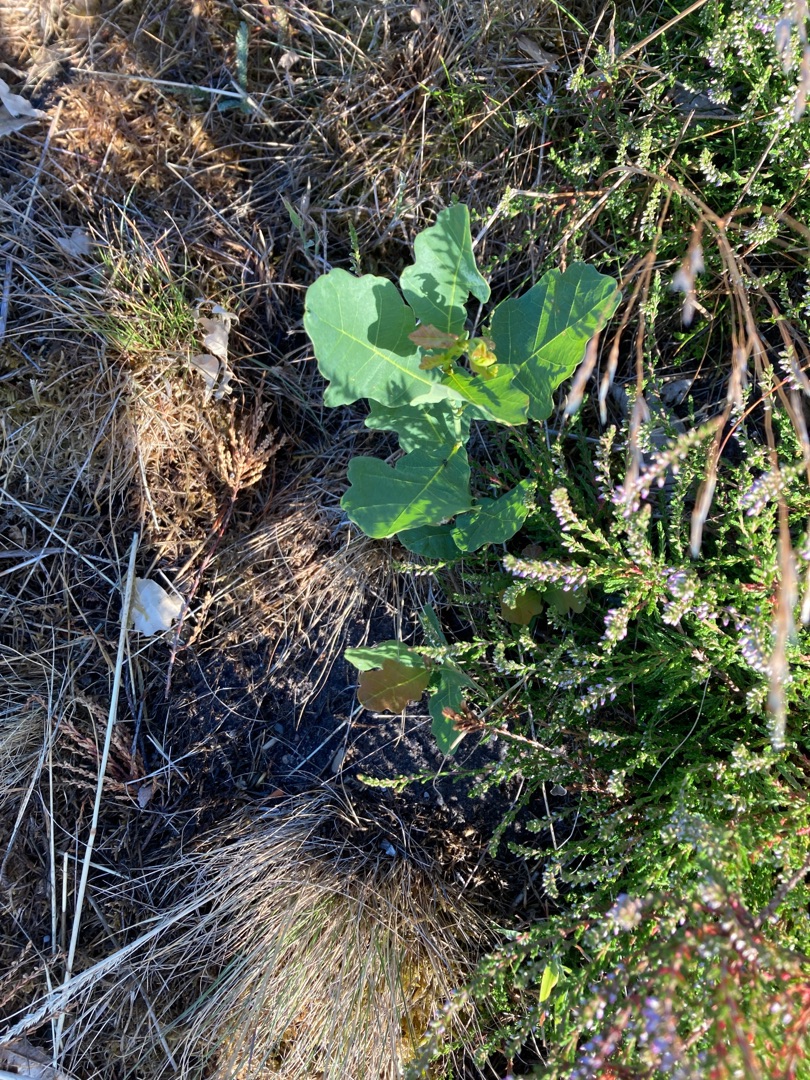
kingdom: Plantae
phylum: Tracheophyta
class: Magnoliopsida
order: Fagales
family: Fagaceae
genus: Quercus
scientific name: Quercus robur
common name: Stilk-eg/almindelig eg
